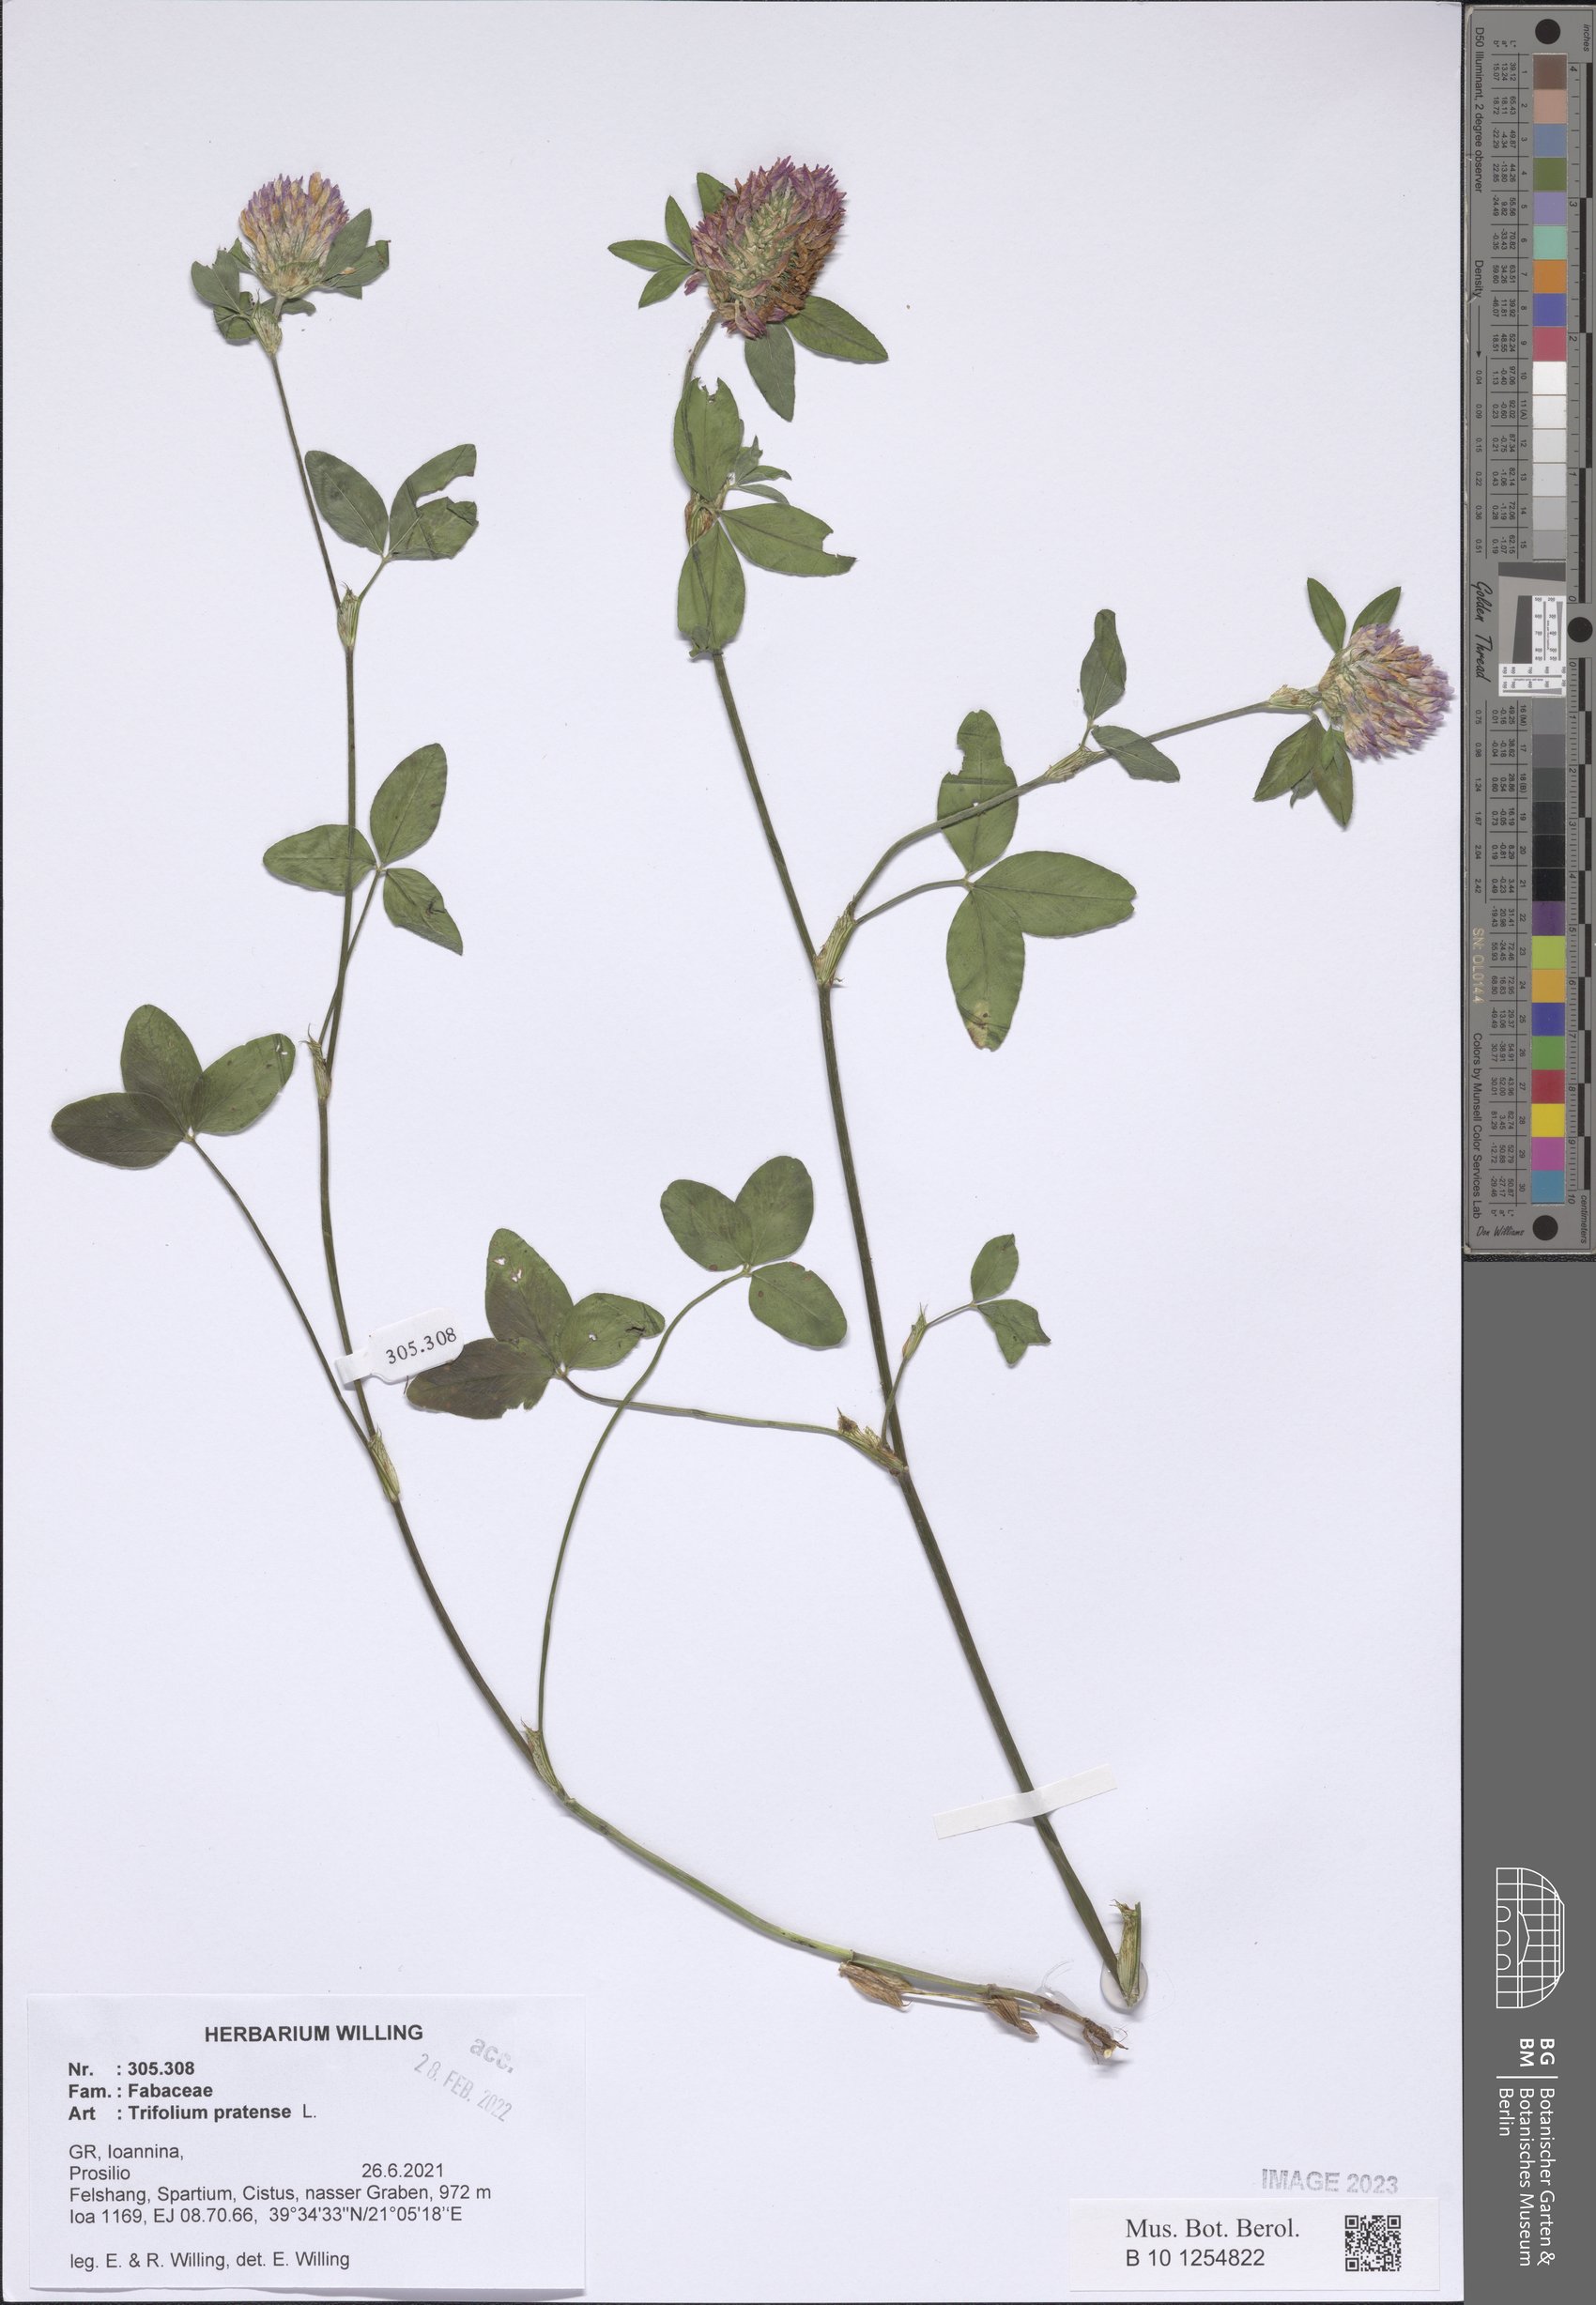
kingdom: Plantae
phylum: Tracheophyta
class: Magnoliopsida
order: Fabales
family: Fabaceae
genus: Trifolium
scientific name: Trifolium pratense
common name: Red clover
